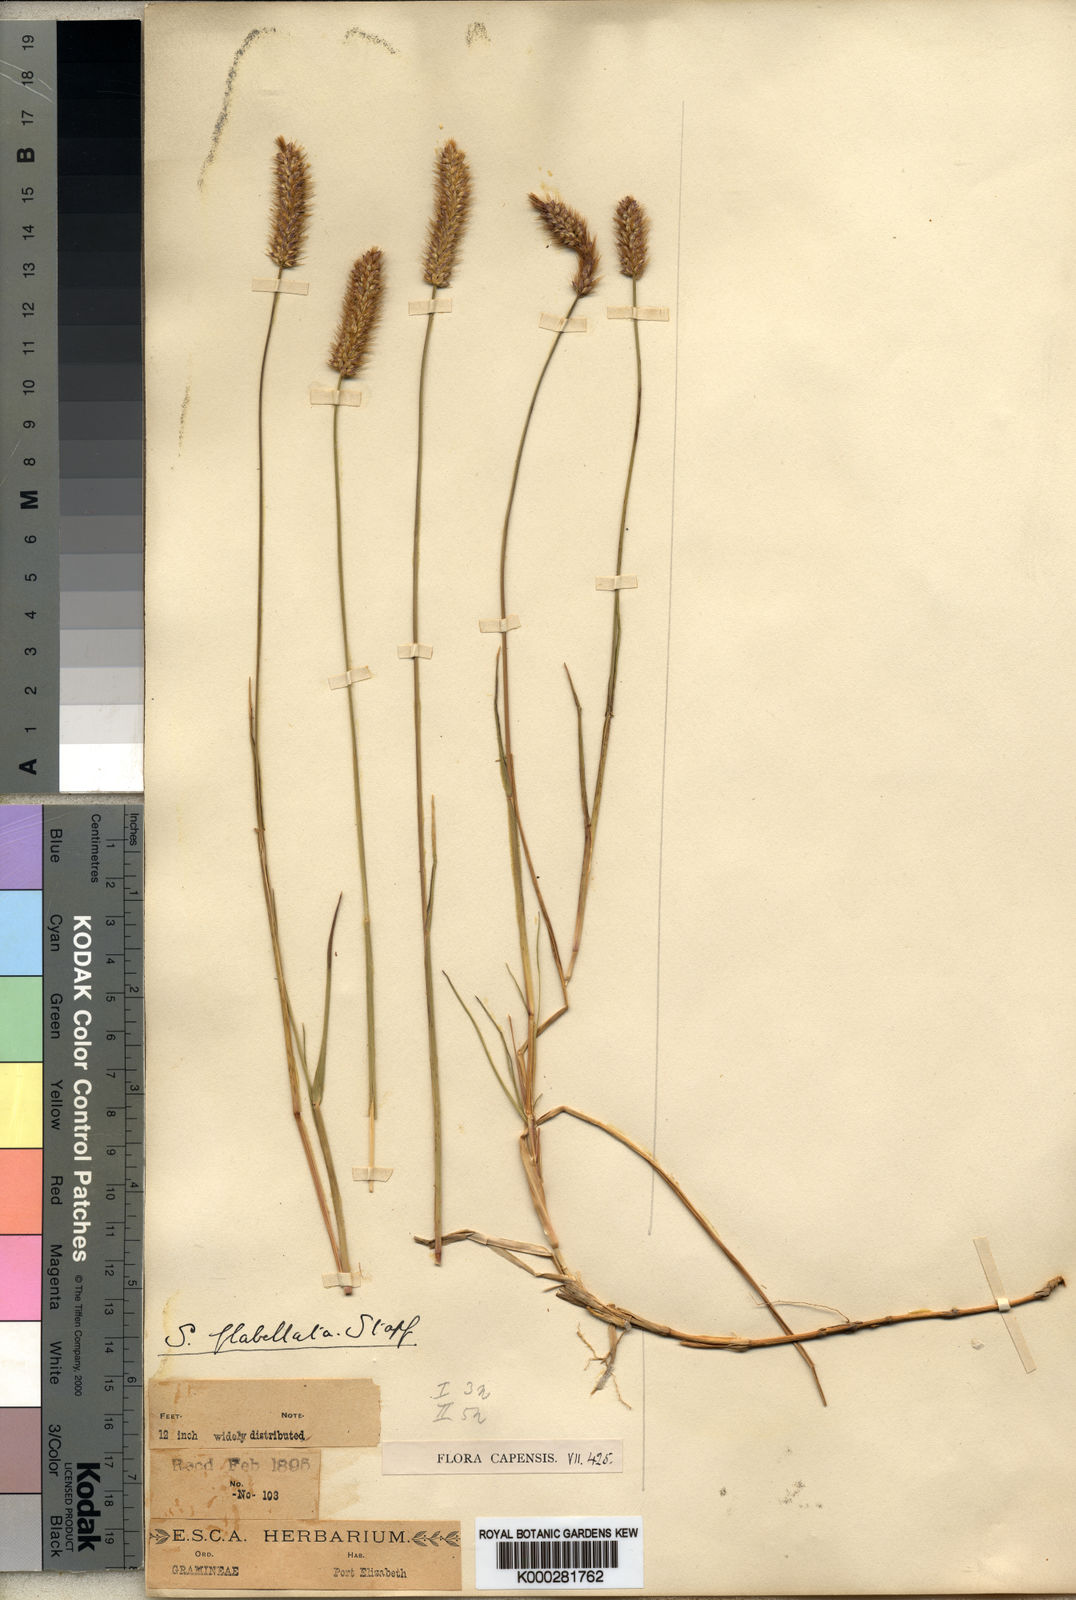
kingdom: Plantae
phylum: Tracheophyta
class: Liliopsida
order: Poales
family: Poaceae
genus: Setaria
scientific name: Setaria sphacelata
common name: African bristlegrass
